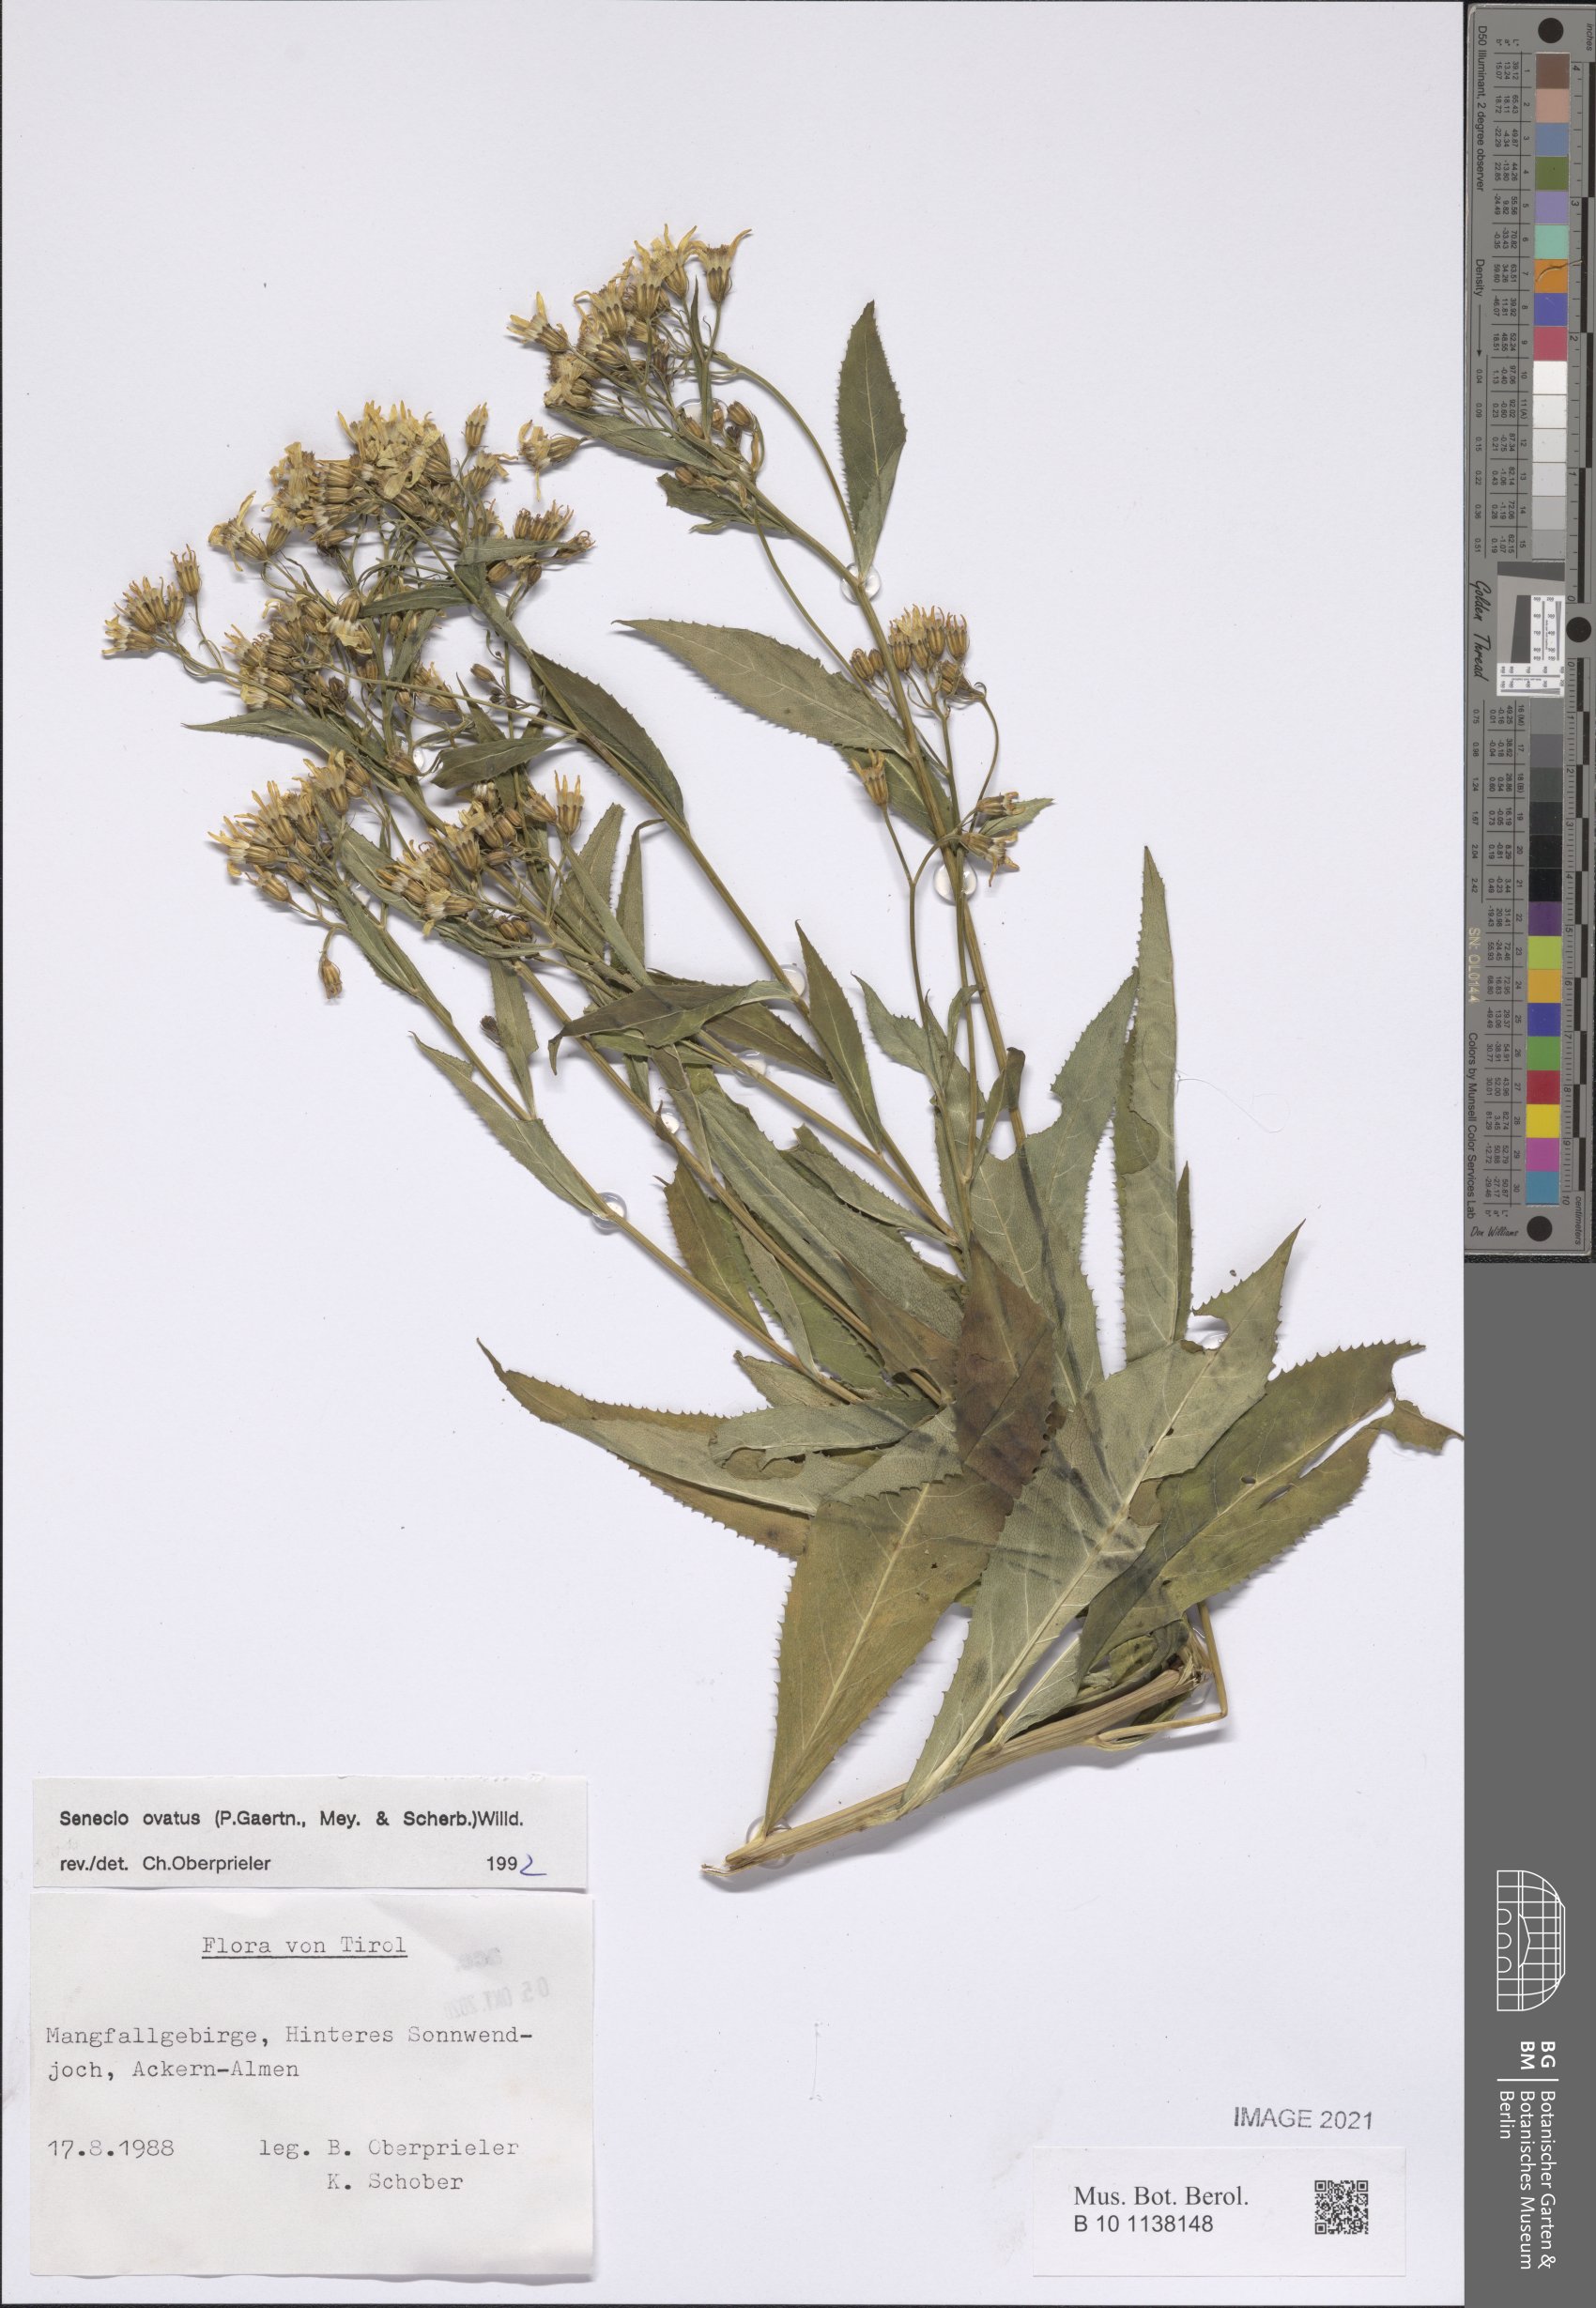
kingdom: Plantae
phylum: Tracheophyta
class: Magnoliopsida
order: Asterales
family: Asteraceae
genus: Senecio
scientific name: Senecio ovatus
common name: Wood ragwort
